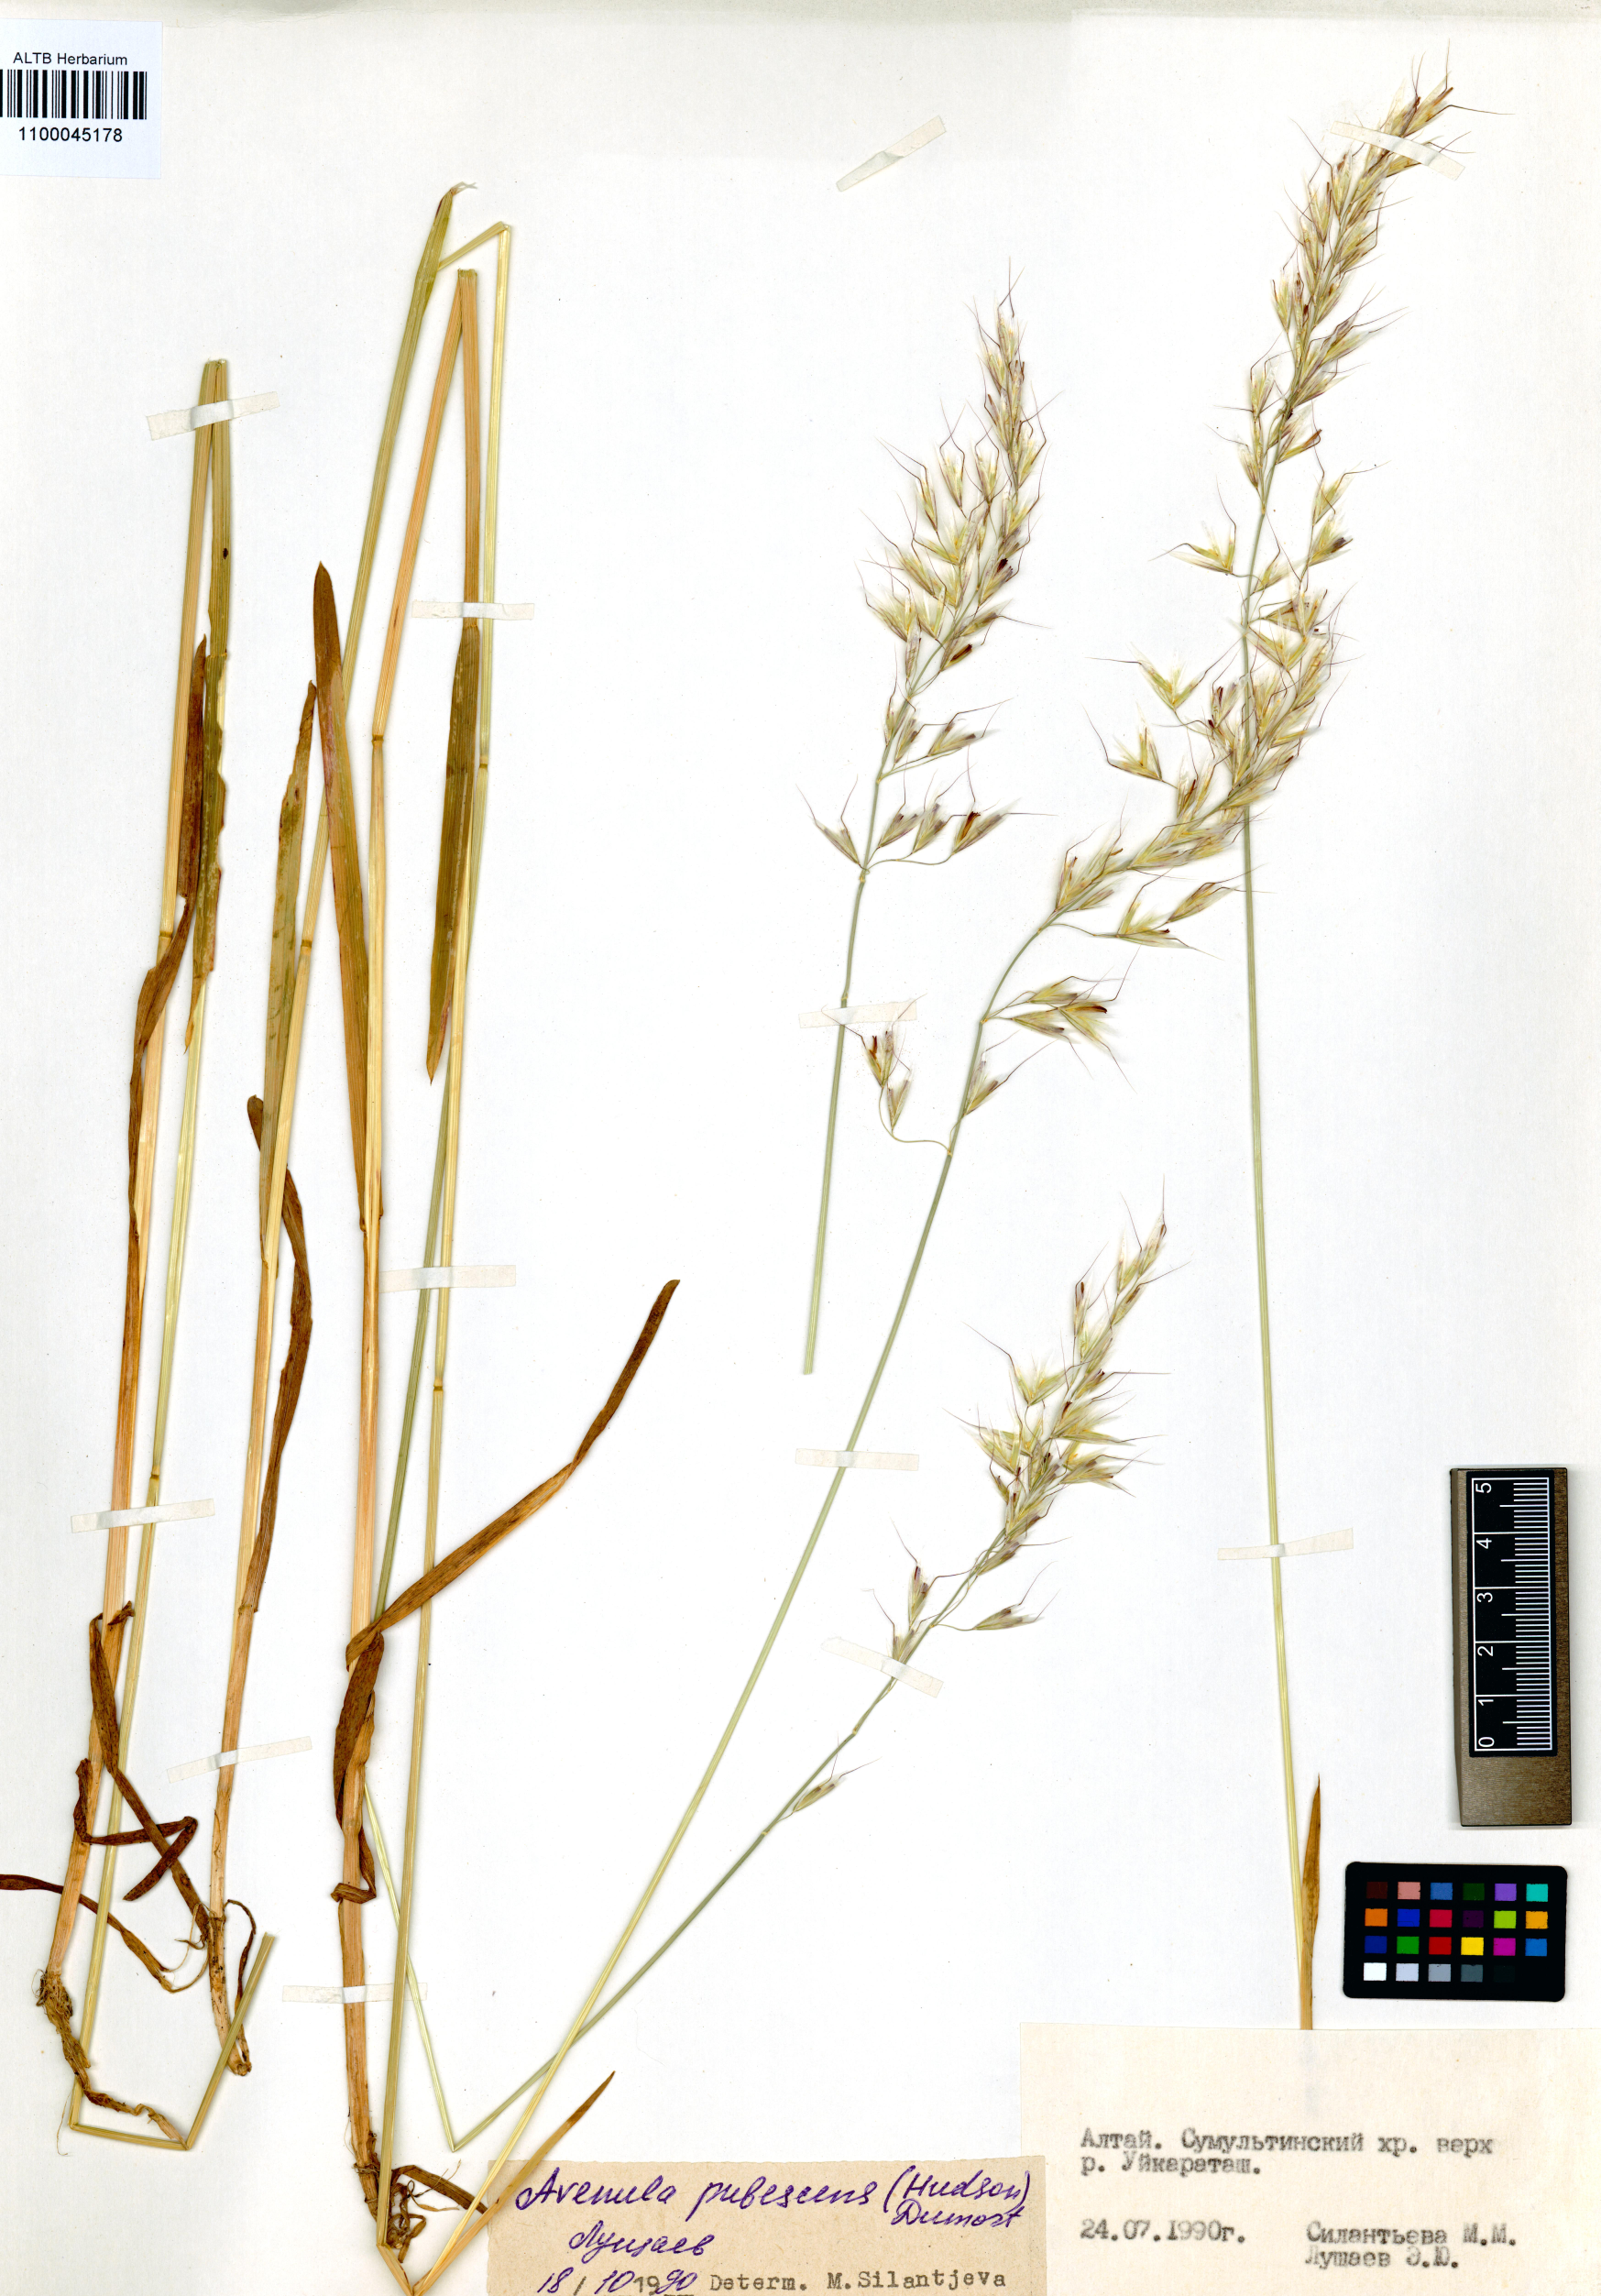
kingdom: Plantae
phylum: Tracheophyta
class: Liliopsida
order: Poales
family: Poaceae
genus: Avenula
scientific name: Avenula pubescens
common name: Downy alpine oatgrass
